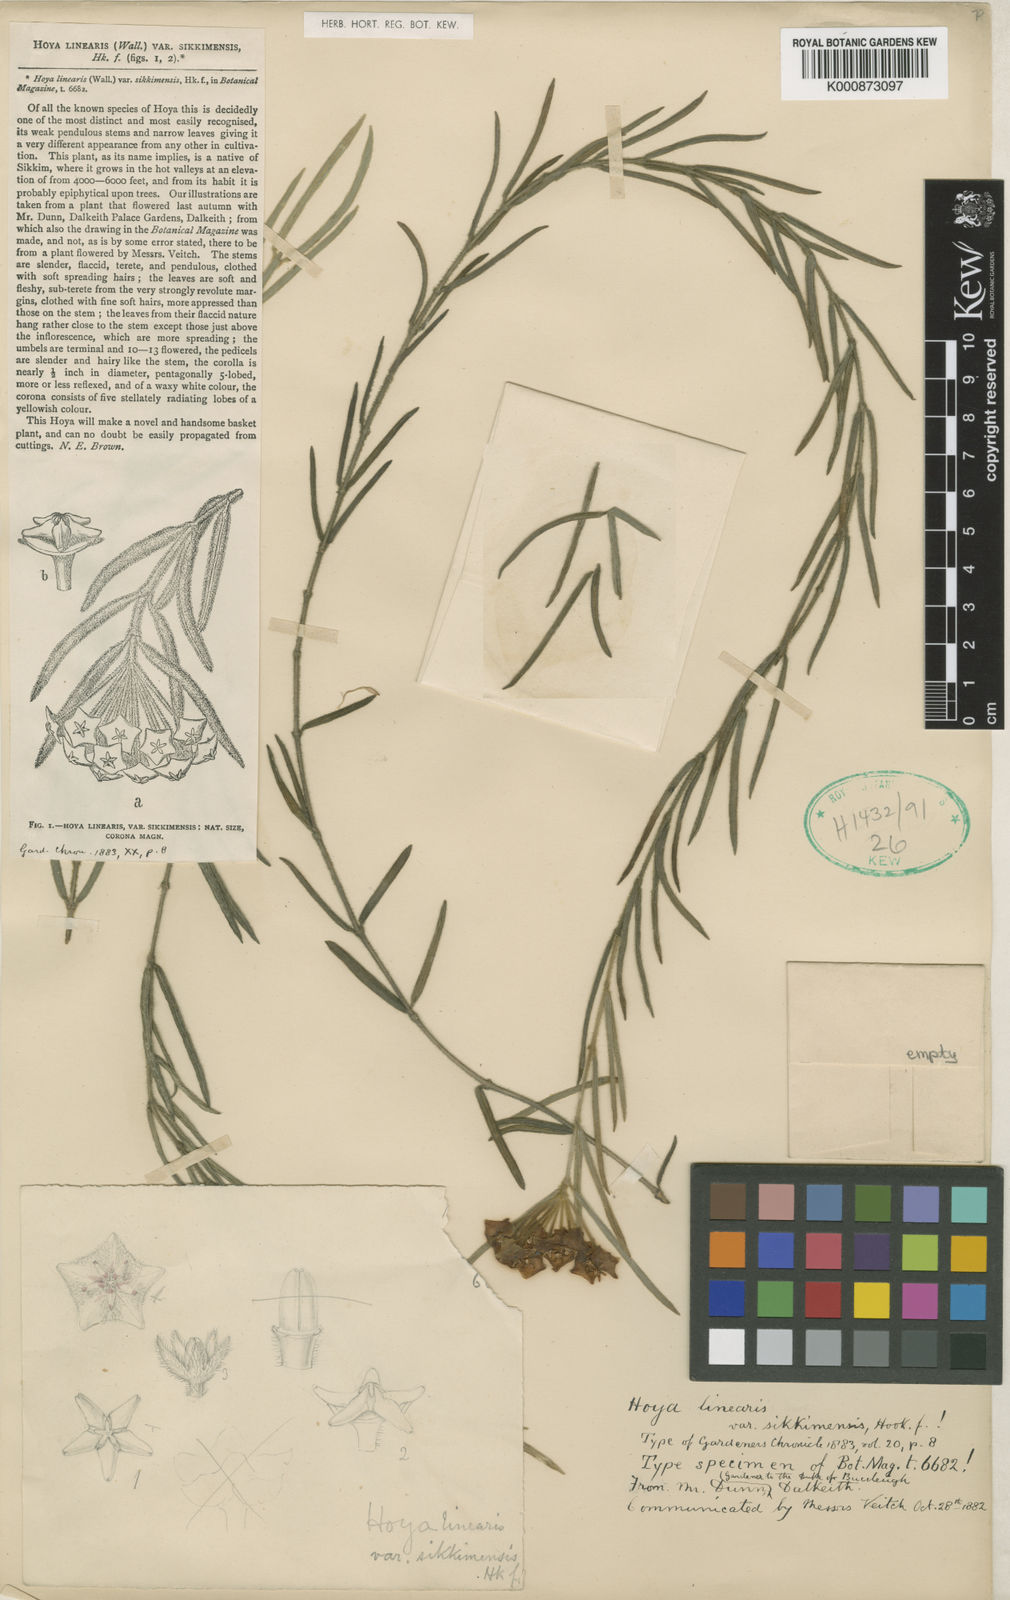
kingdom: Plantae
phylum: Tracheophyta
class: Magnoliopsida
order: Gentianales
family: Apocynaceae
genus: Hoya
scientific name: Hoya linearis
